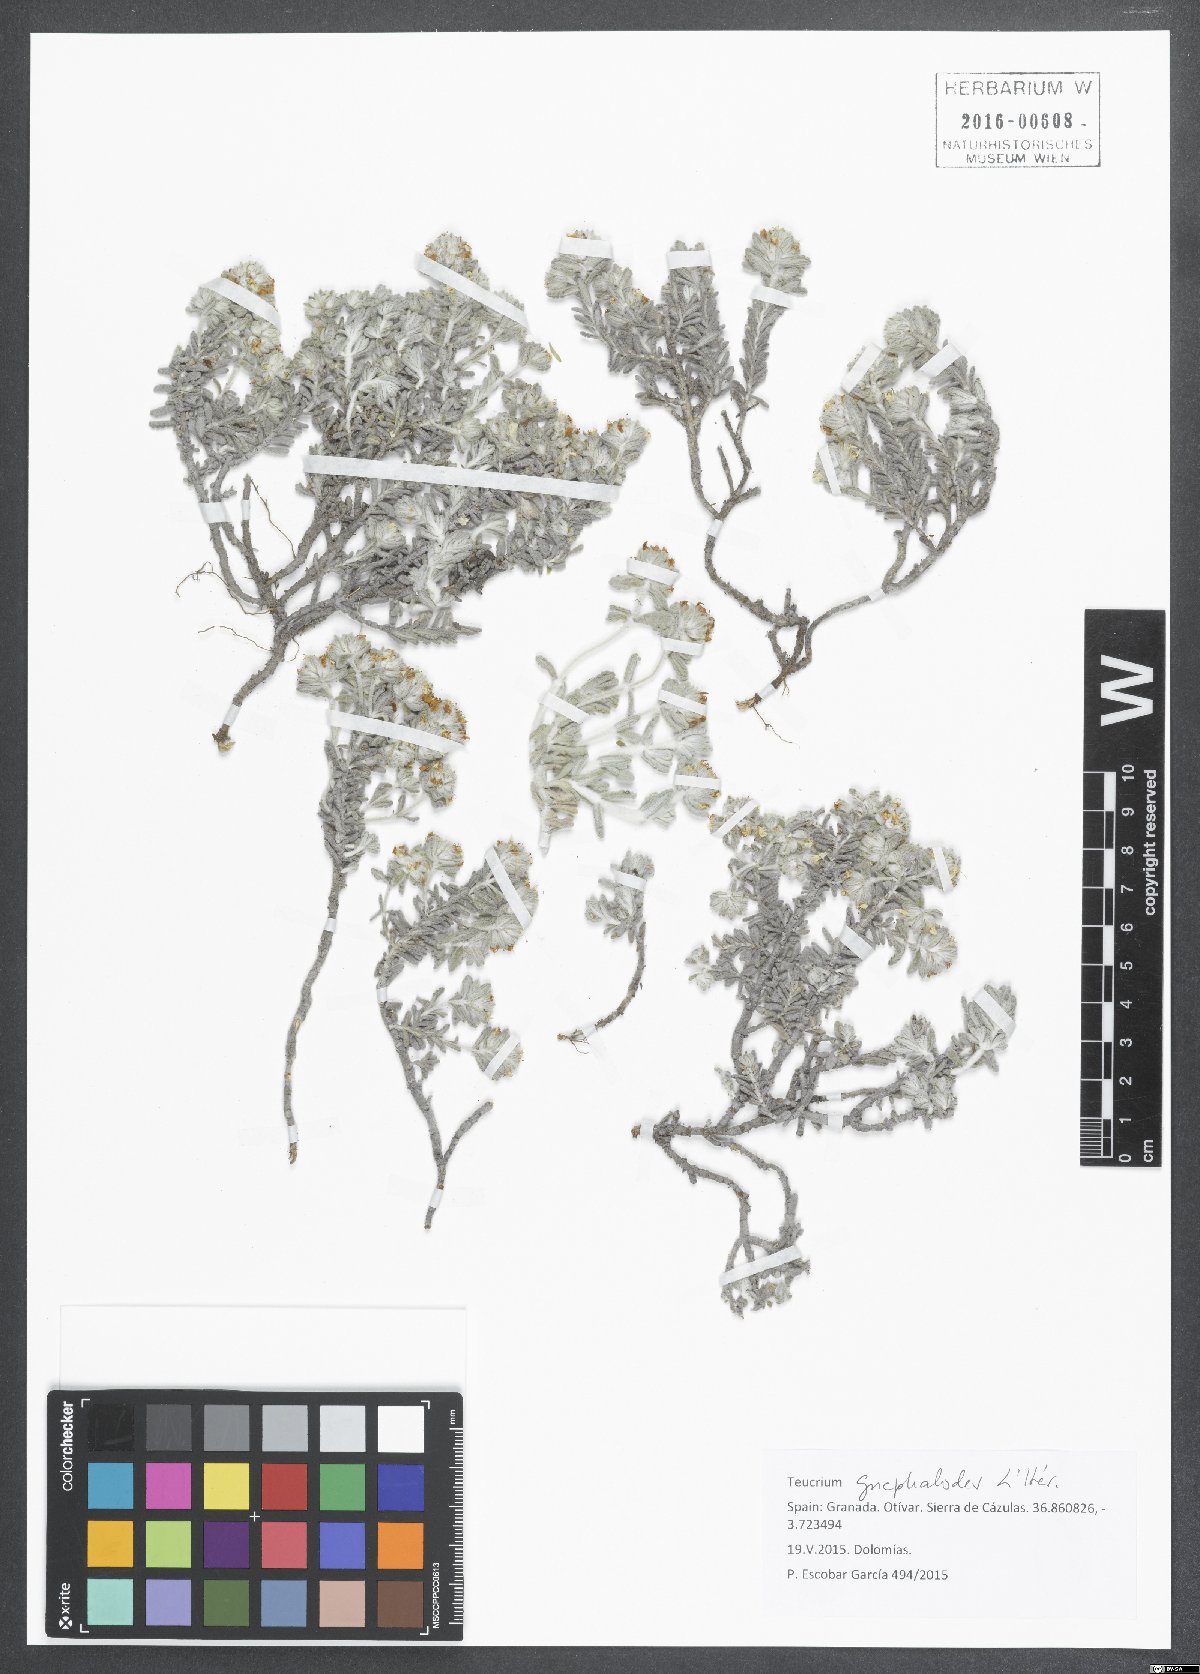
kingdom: Plantae
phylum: Tracheophyta
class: Magnoliopsida
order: Lamiales
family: Lamiaceae
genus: Teucrium
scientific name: Teucrium gnaphalodes
